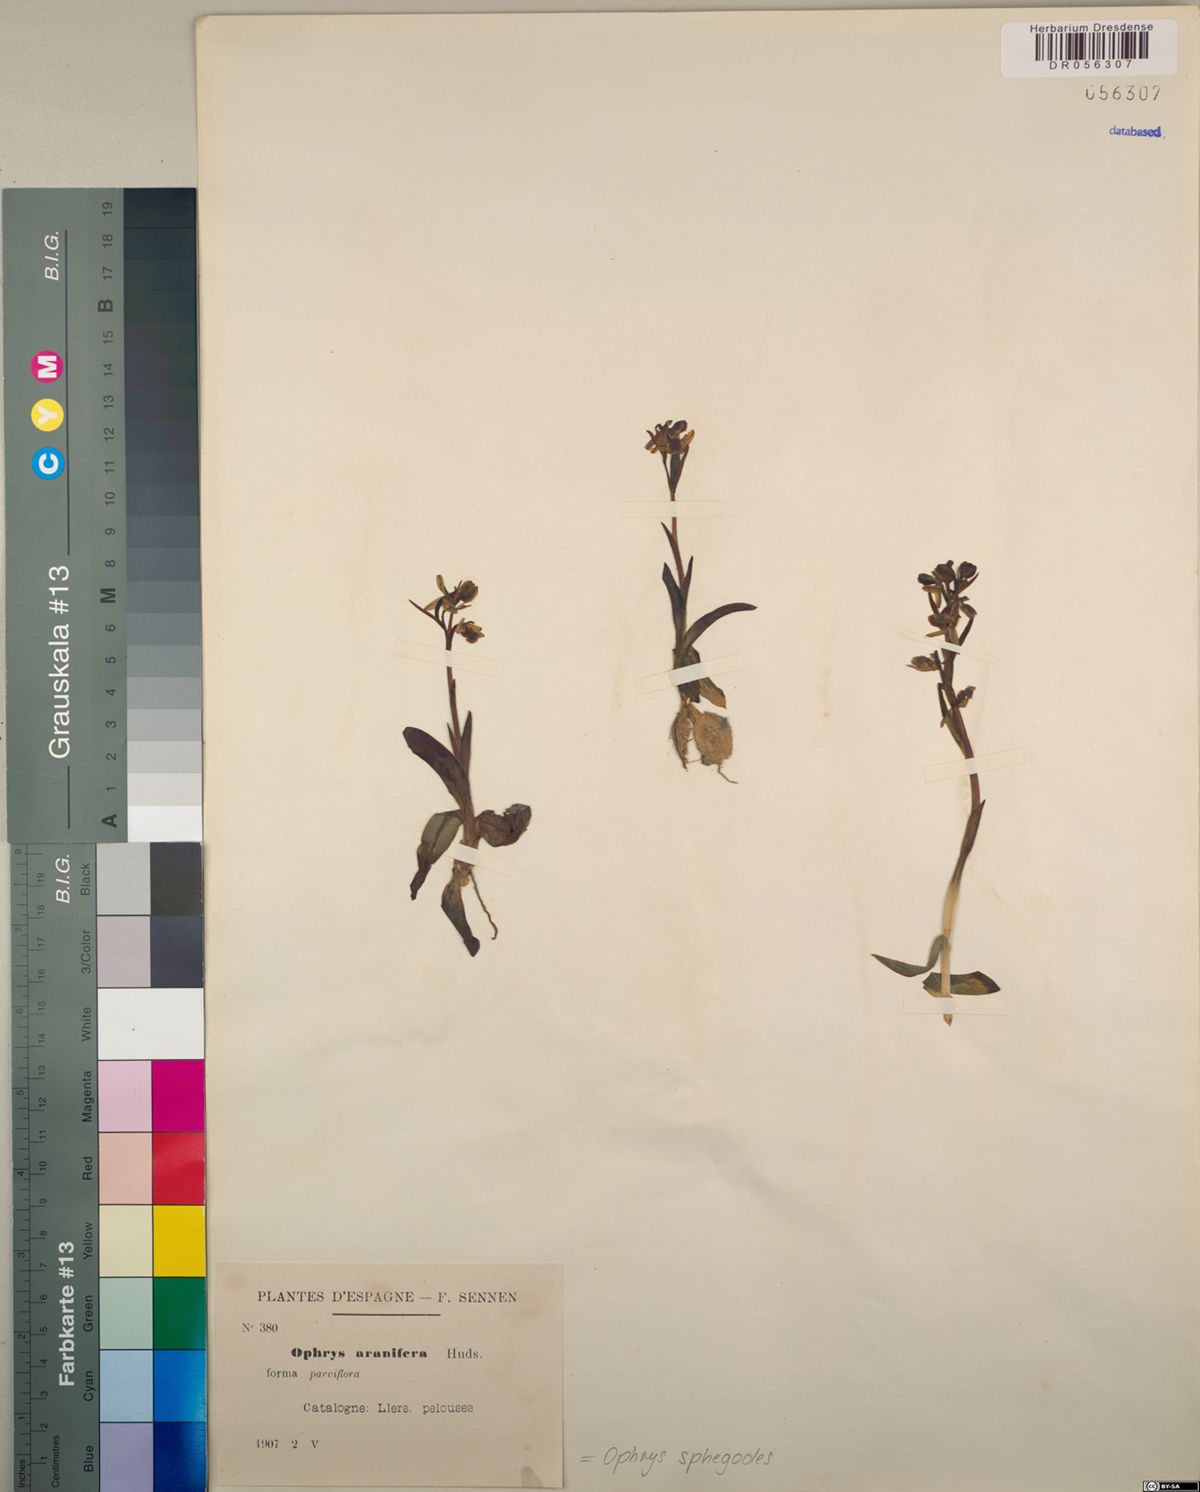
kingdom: Plantae
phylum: Tracheophyta
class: Liliopsida
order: Asparagales
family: Orchidaceae
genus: Ophrys
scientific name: Ophrys sphegodes
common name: Early spider-orchid
